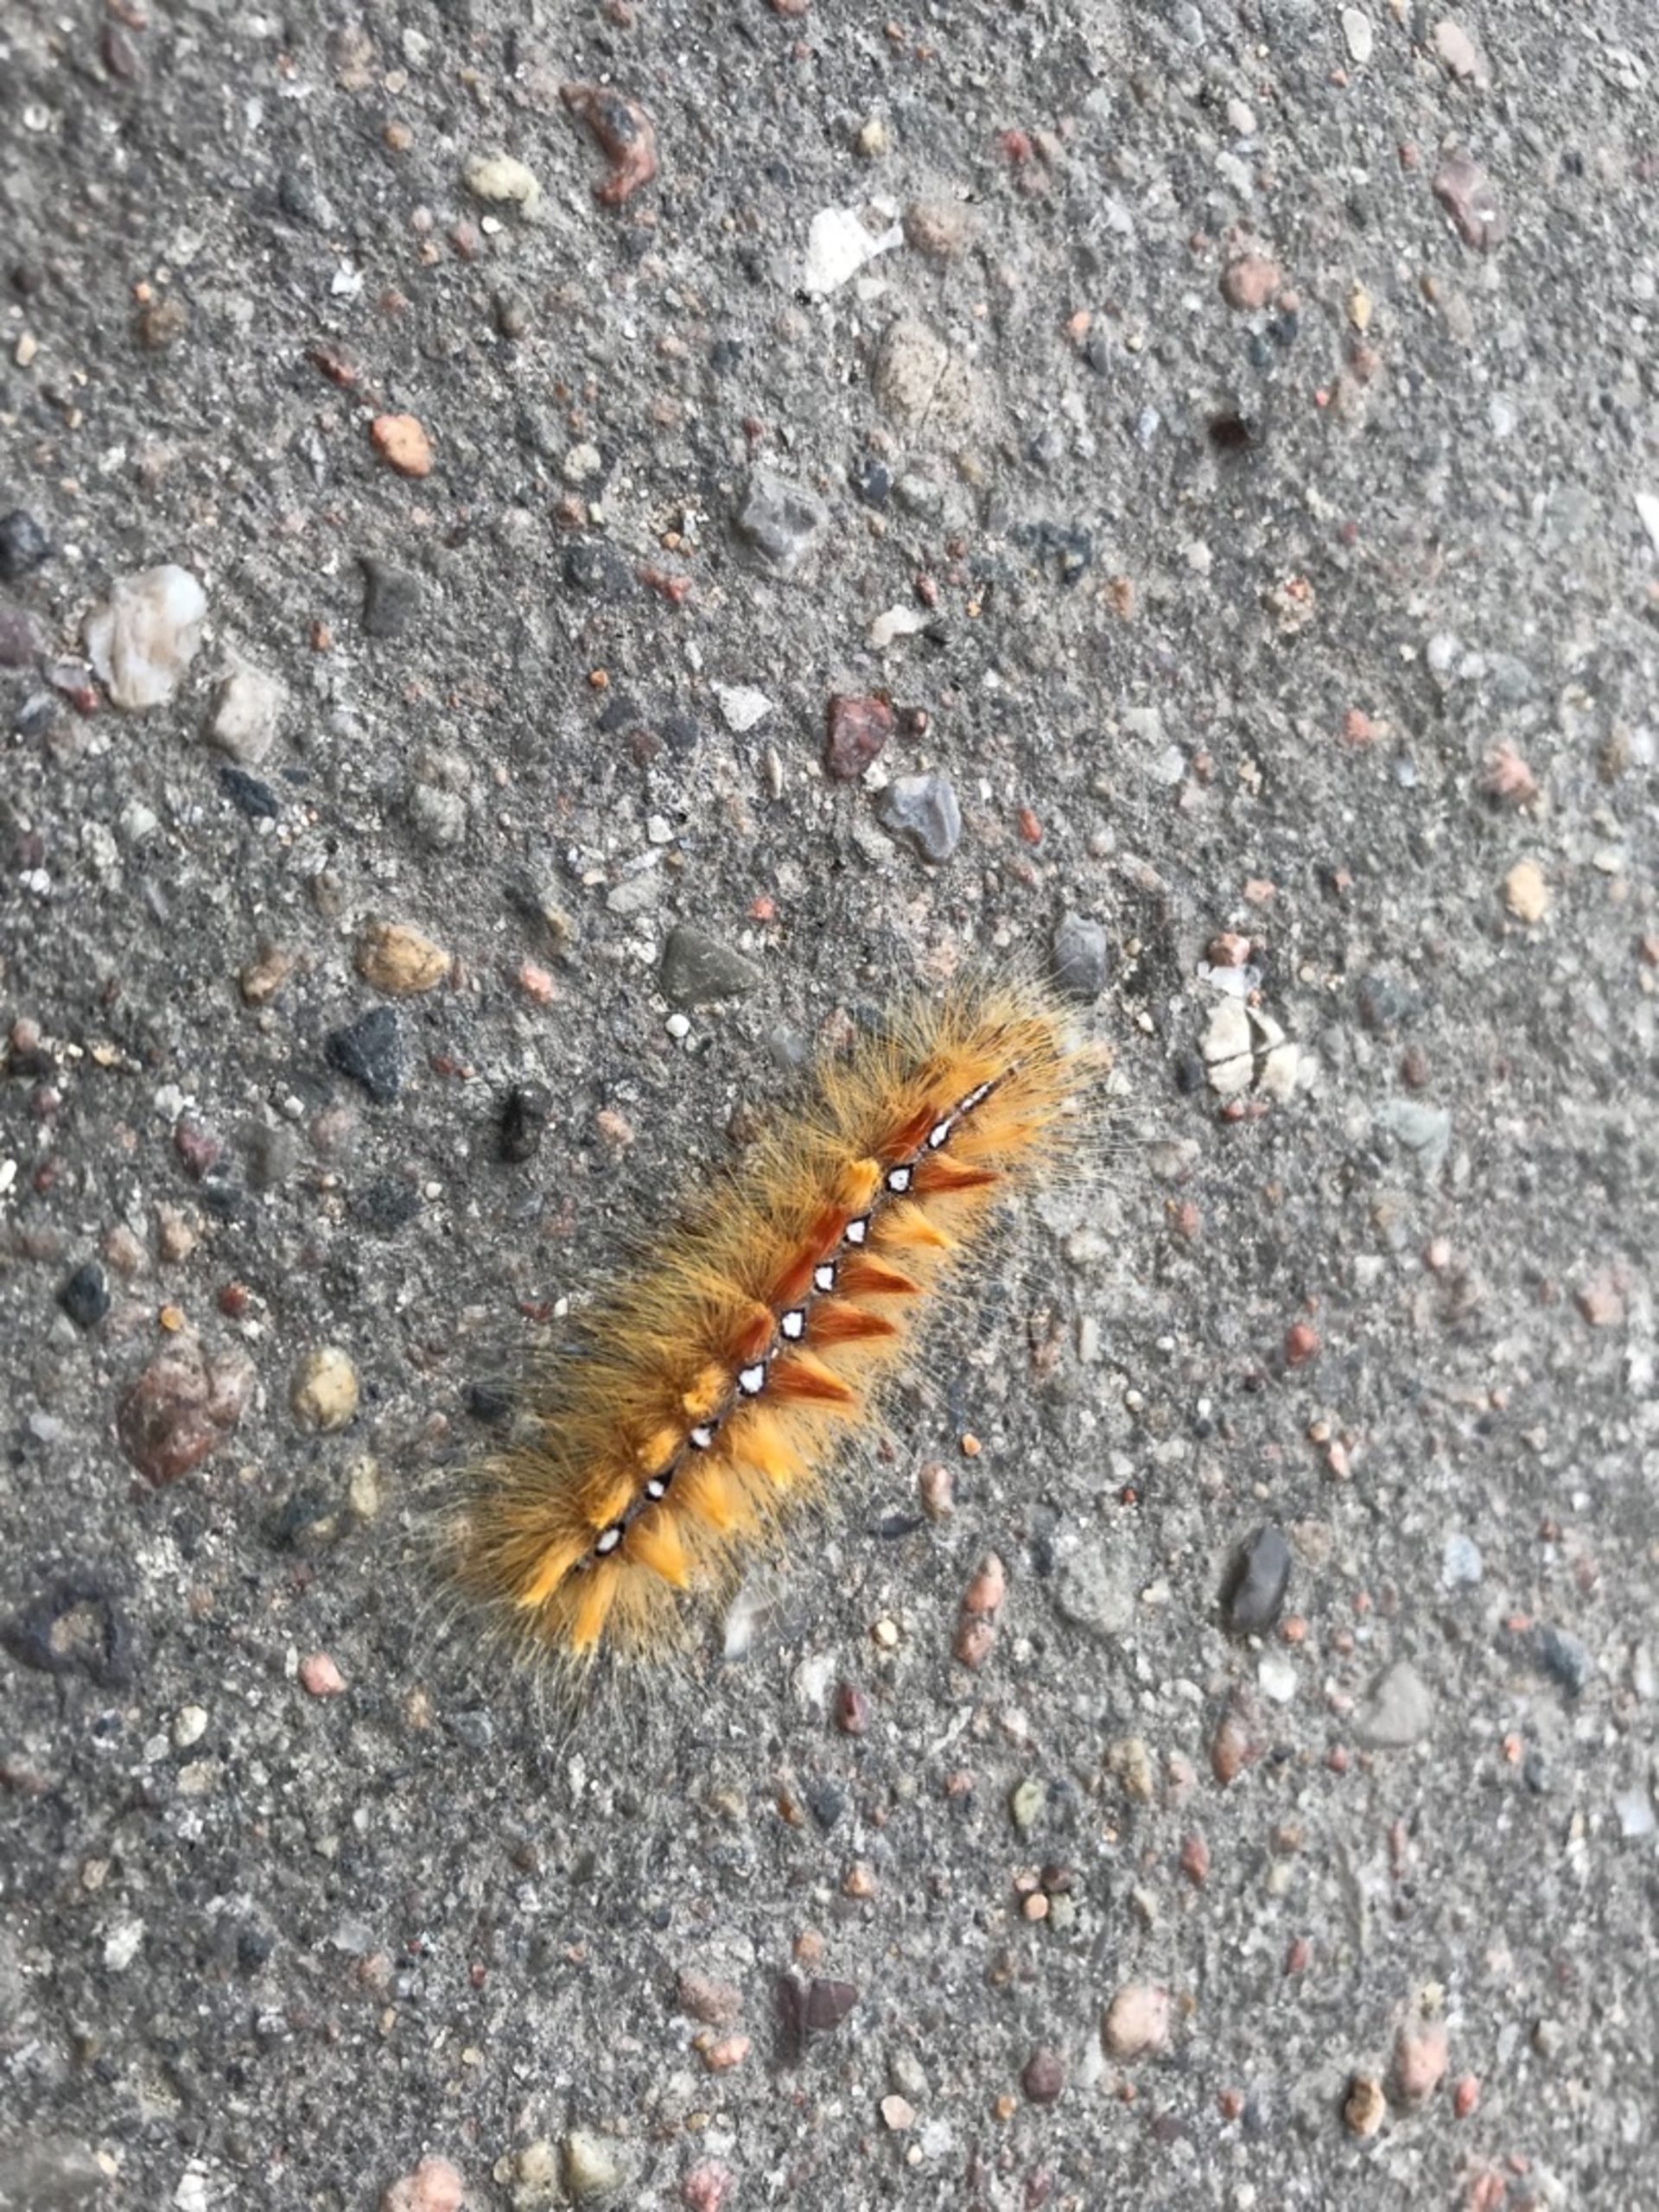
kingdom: Animalia
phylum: Arthropoda
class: Insecta
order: Lepidoptera
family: Noctuidae
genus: Acronicta
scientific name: Acronicta aceris
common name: Ahornugle
